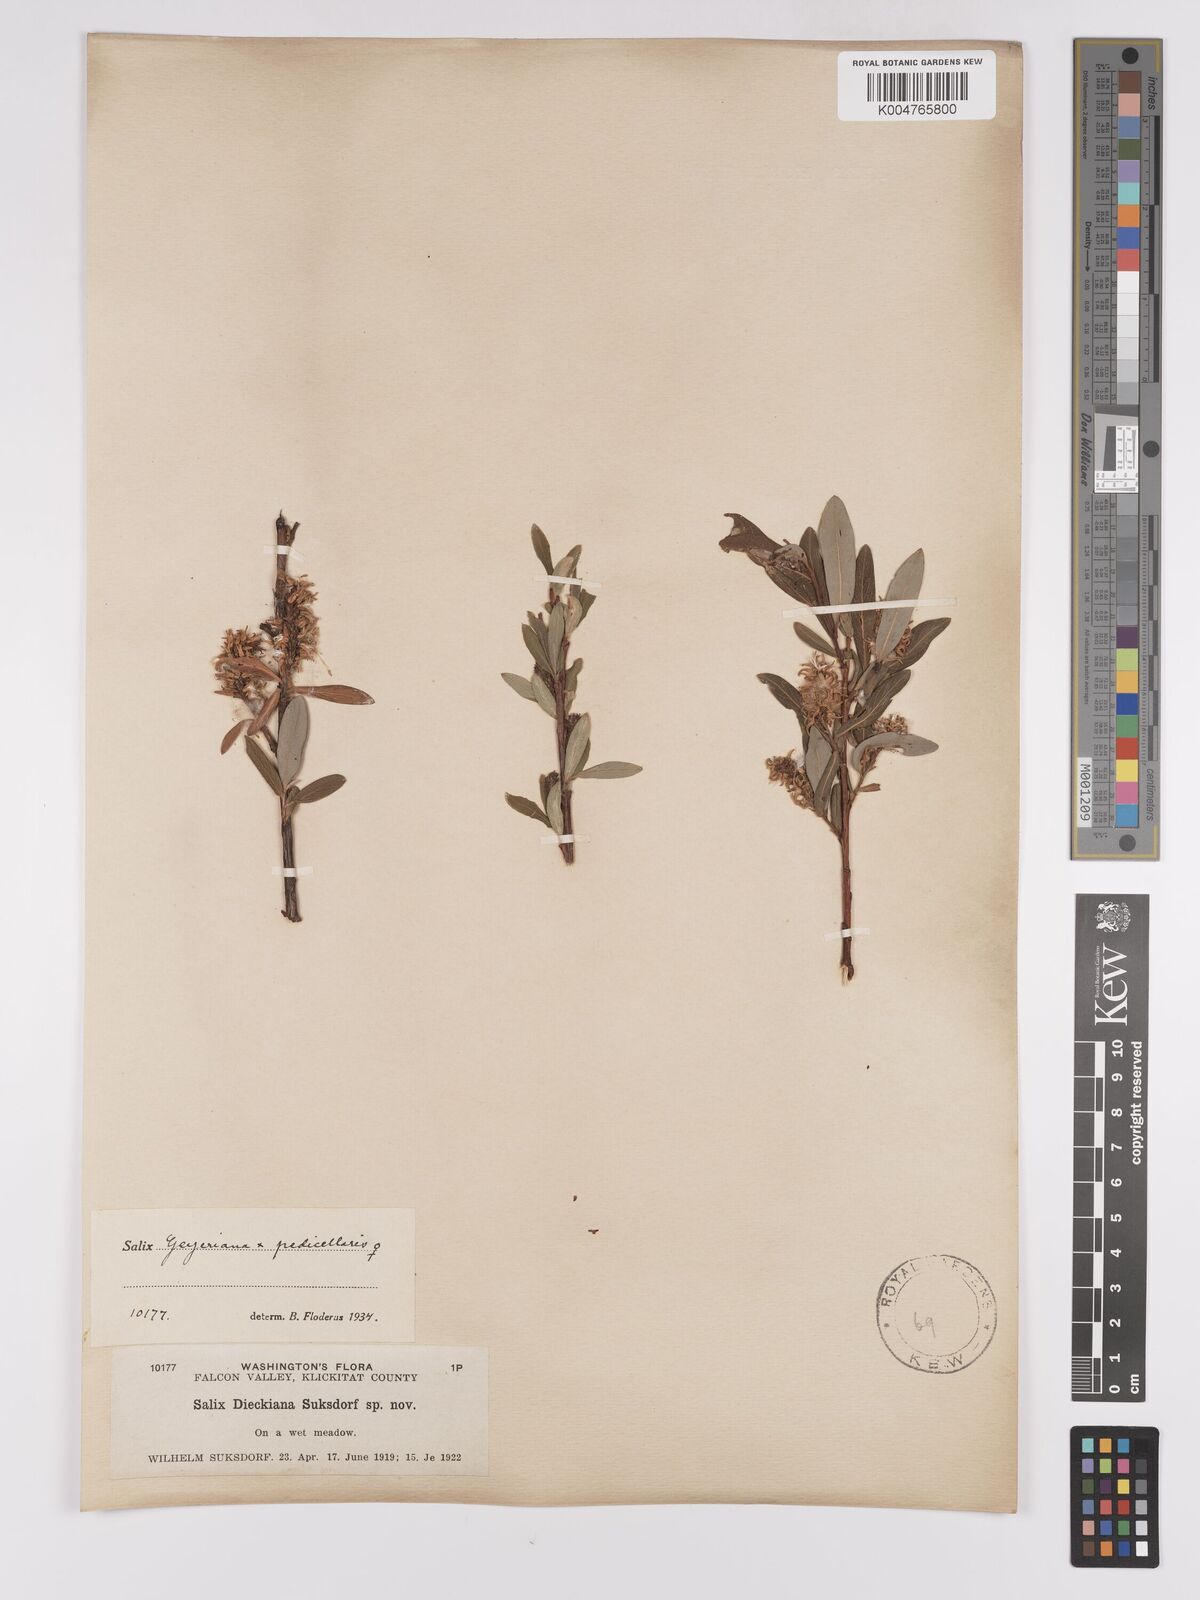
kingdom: Plantae
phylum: Tracheophyta
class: Magnoliopsida
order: Malpighiales
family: Salicaceae
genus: Salix
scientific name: Salix geyeriana
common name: Geyer's willow
